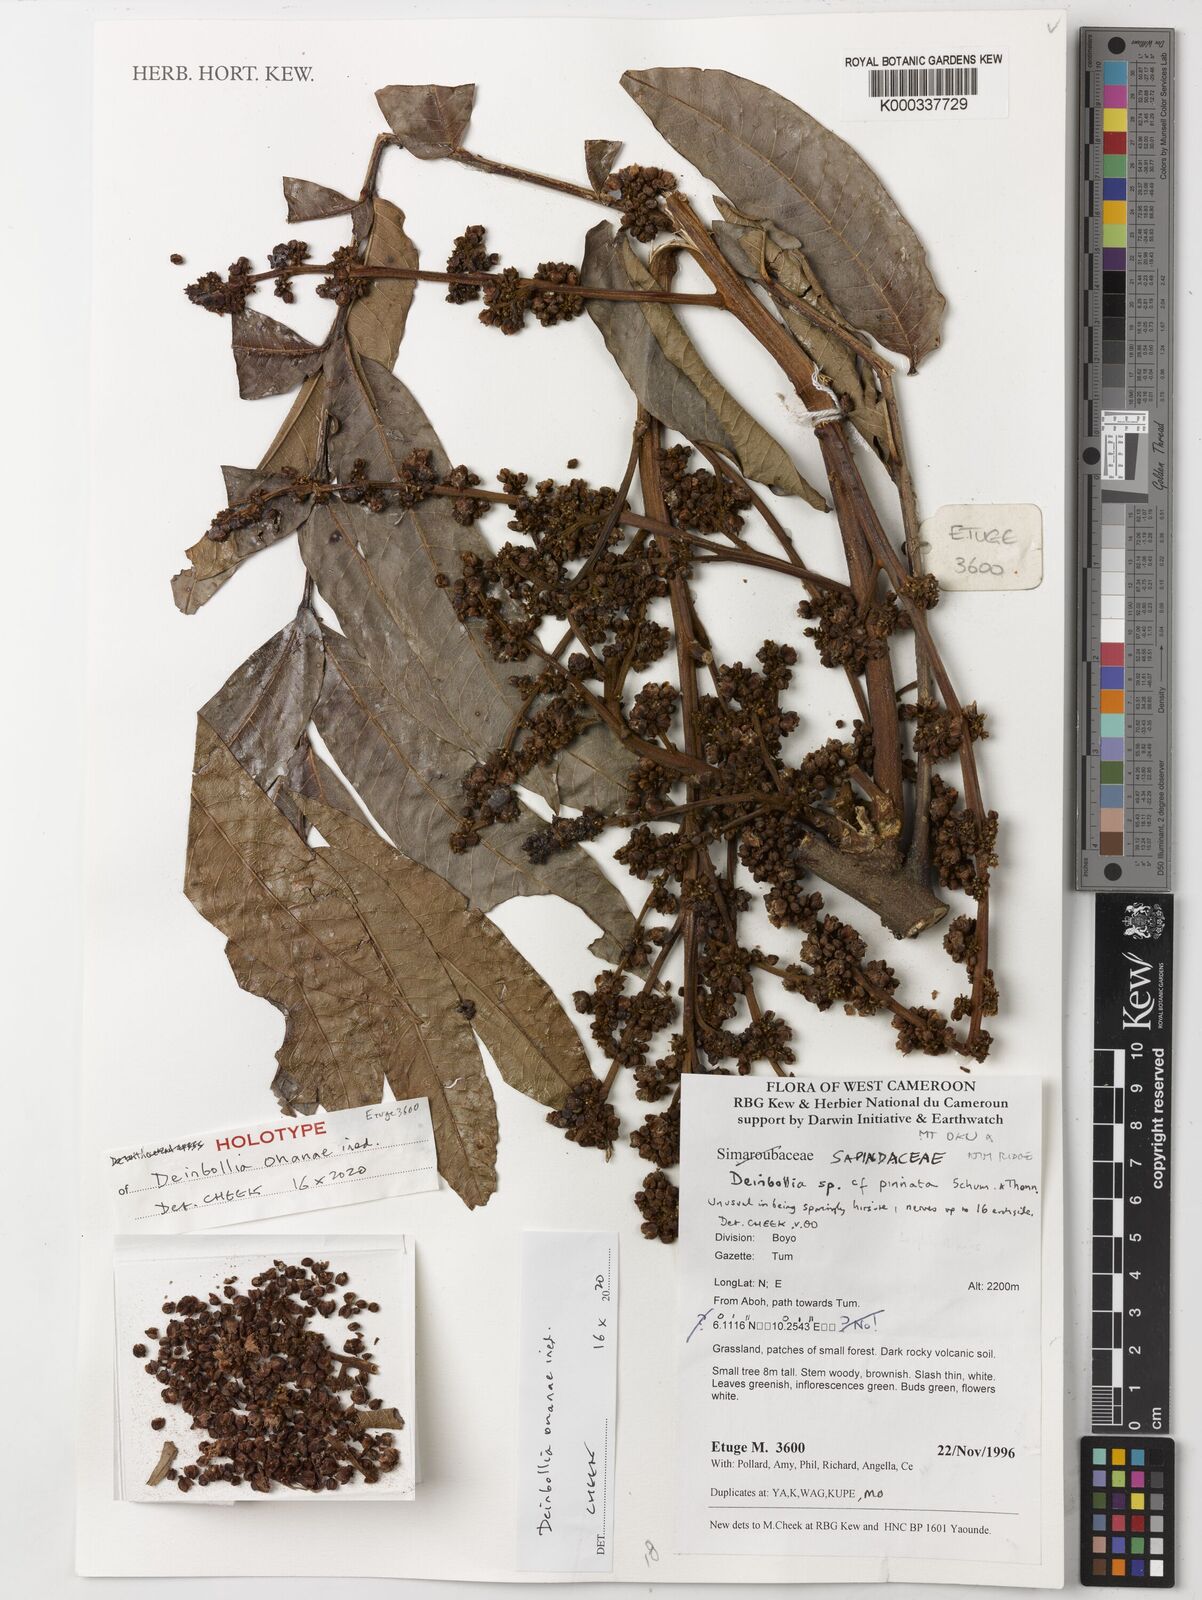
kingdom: Plantae
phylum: Tracheophyta
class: Magnoliopsida
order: Sapindales
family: Sapindaceae
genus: Deinbollia
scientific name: Deinbollia pinnata
